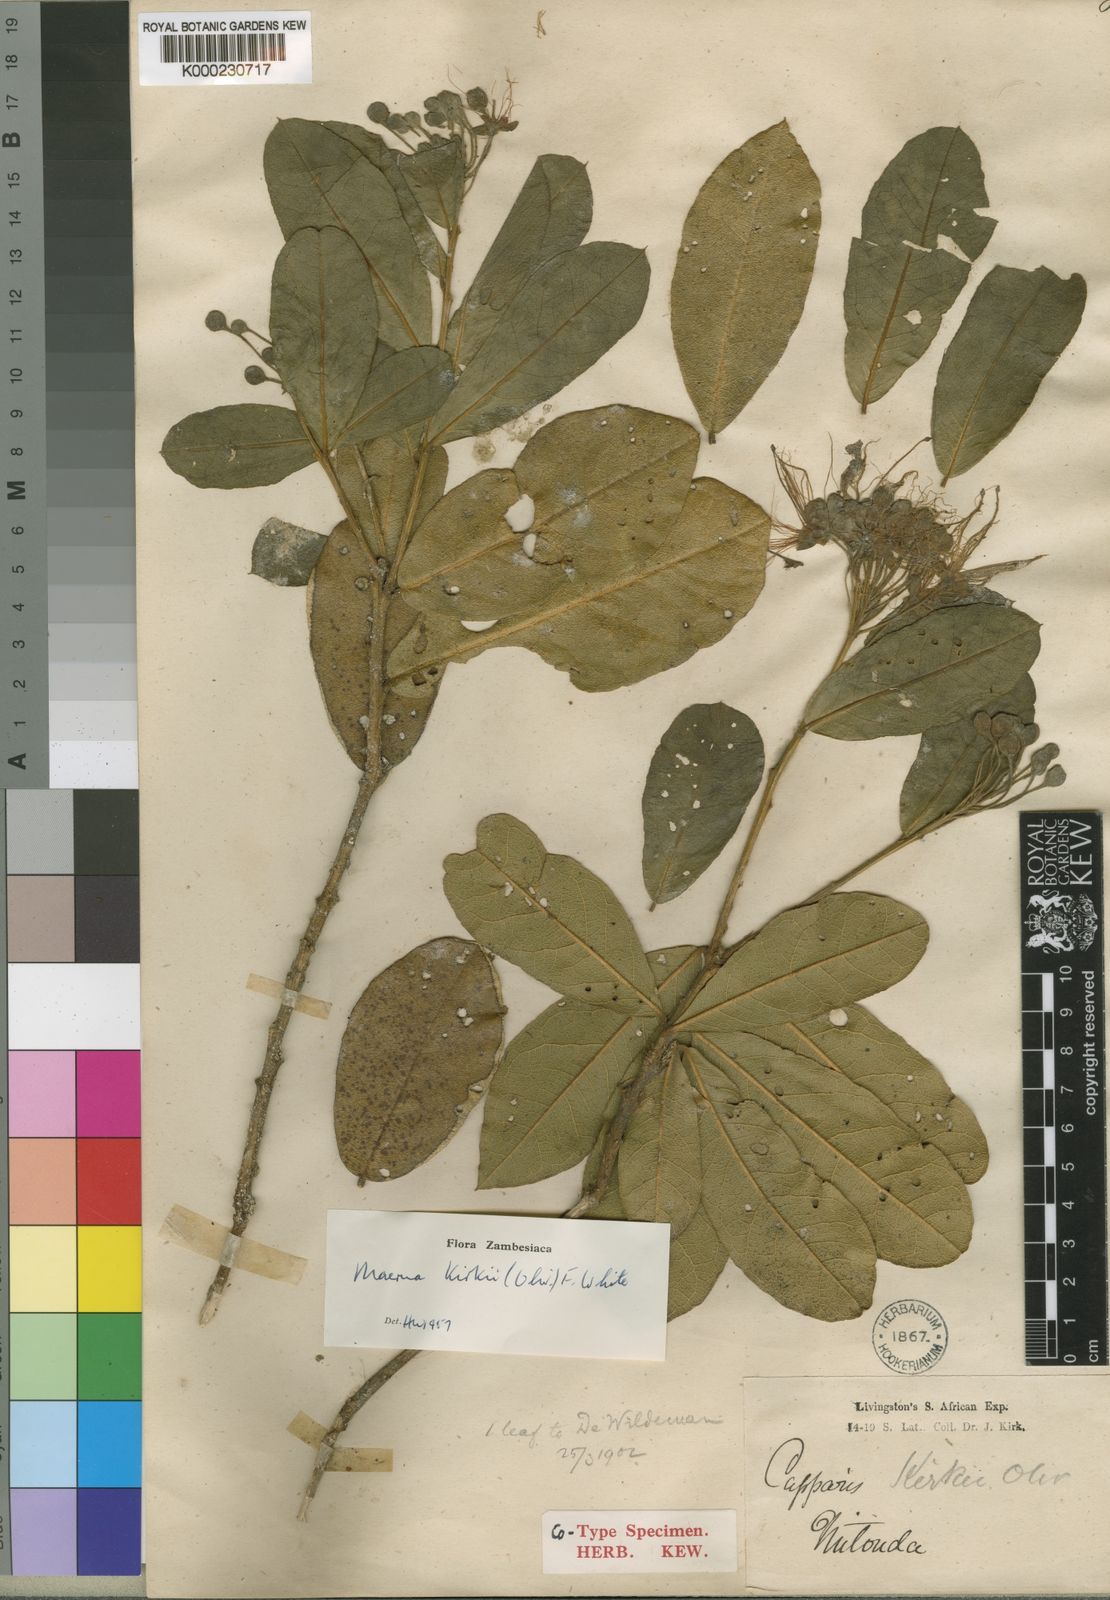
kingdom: Plantae
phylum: Tracheophyta
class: Magnoliopsida
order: Brassicales
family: Capparaceae
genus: Maerua
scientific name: Maerua kirkii
